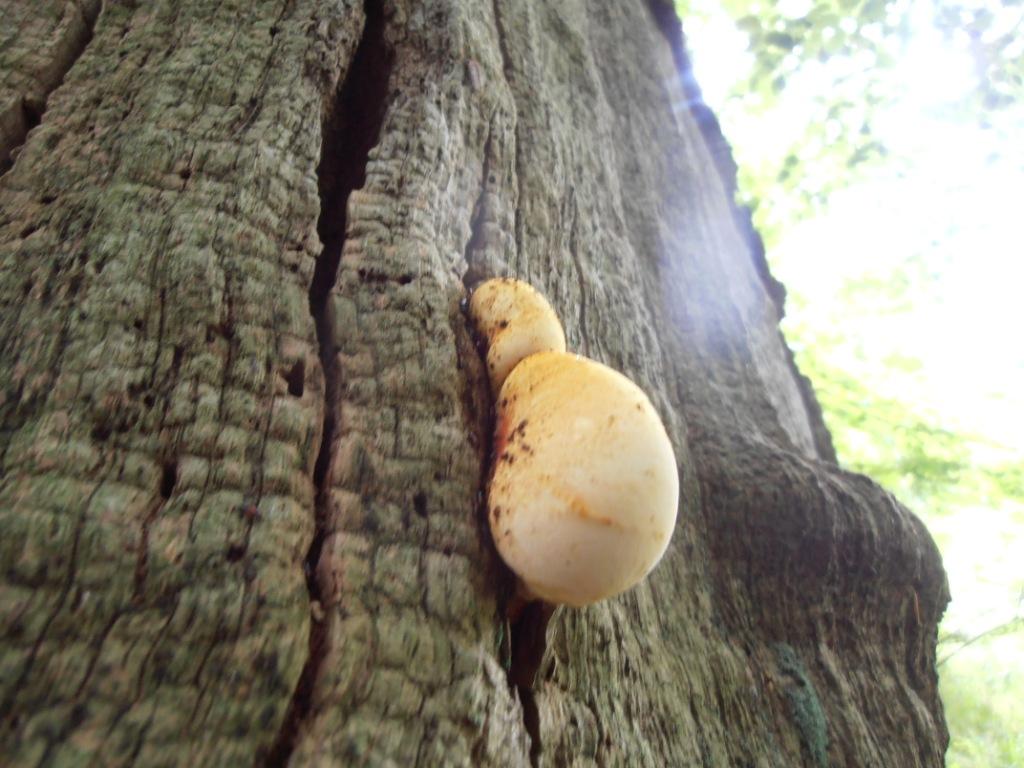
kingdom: Fungi
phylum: Basidiomycota
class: Agaricomycetes
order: Polyporales
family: Fomitopsidaceae
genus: Buglossoporus
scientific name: Buglossoporus quercinus
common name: egetunge
